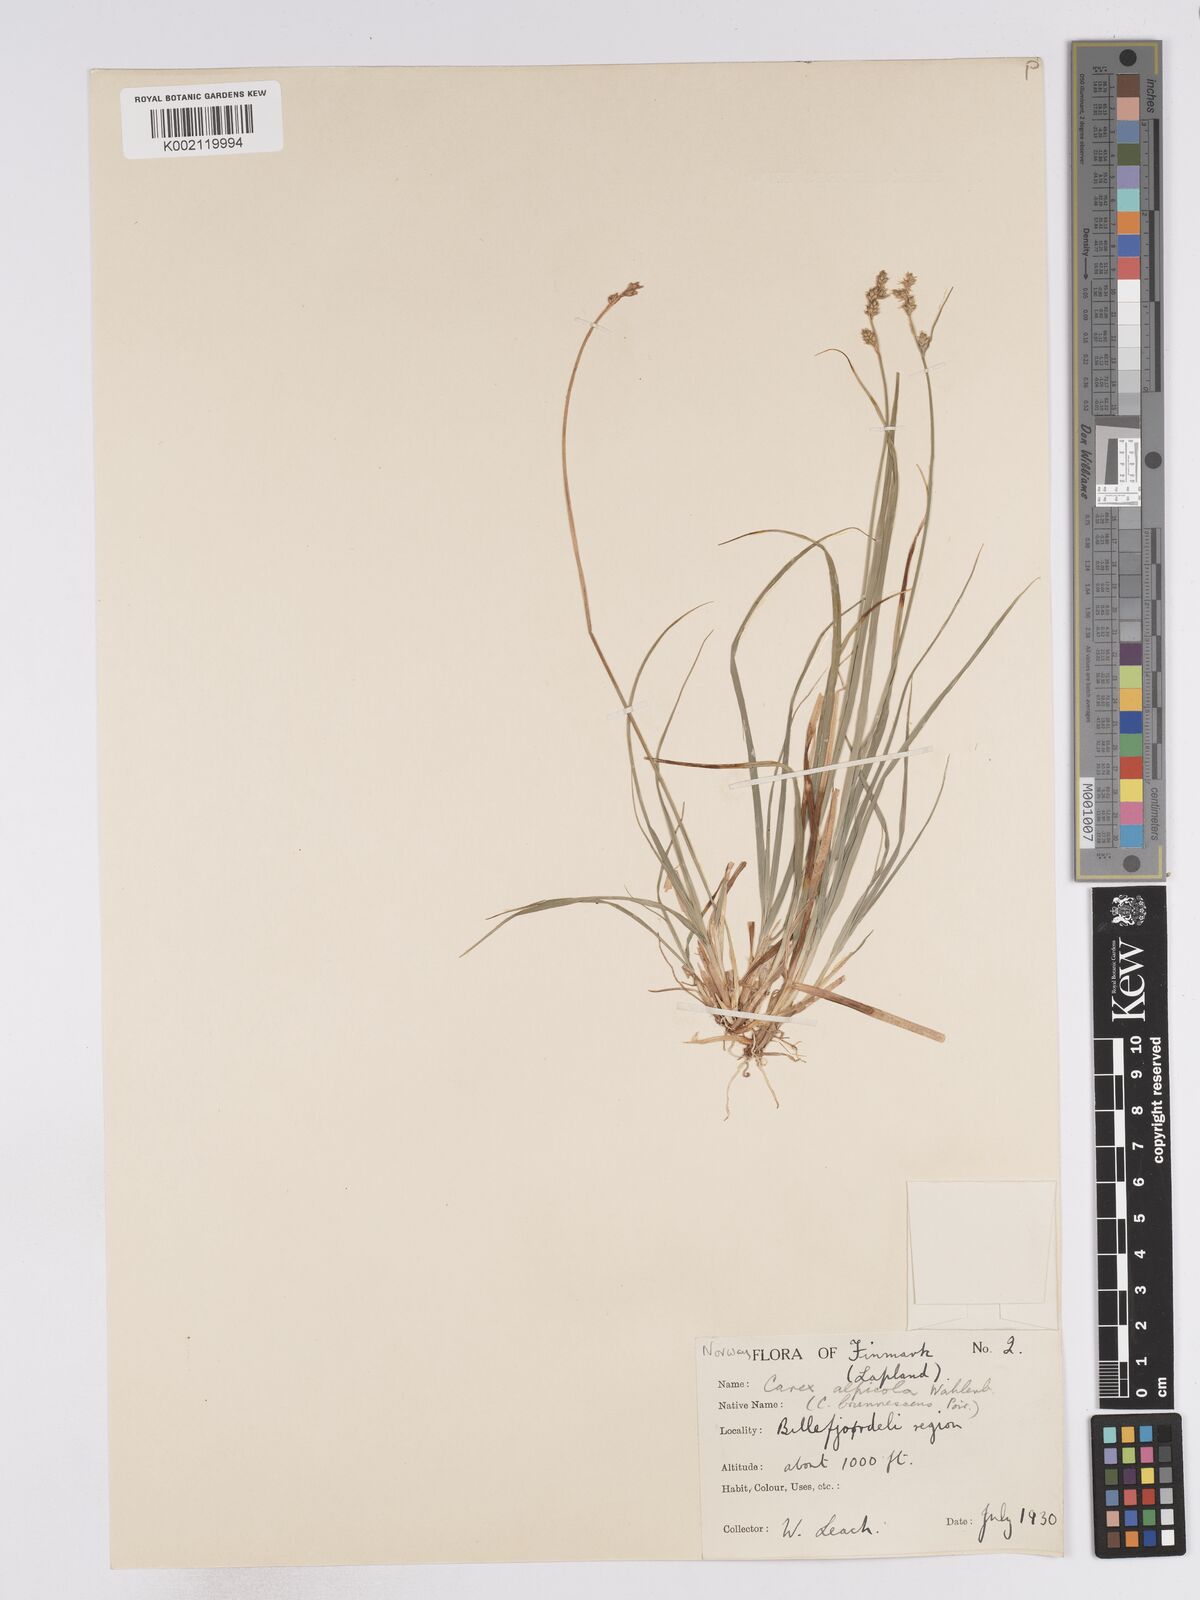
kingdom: Plantae
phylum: Tracheophyta
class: Liliopsida
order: Poales
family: Cyperaceae
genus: Carex
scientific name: Carex brunnescens
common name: Brown sedge
